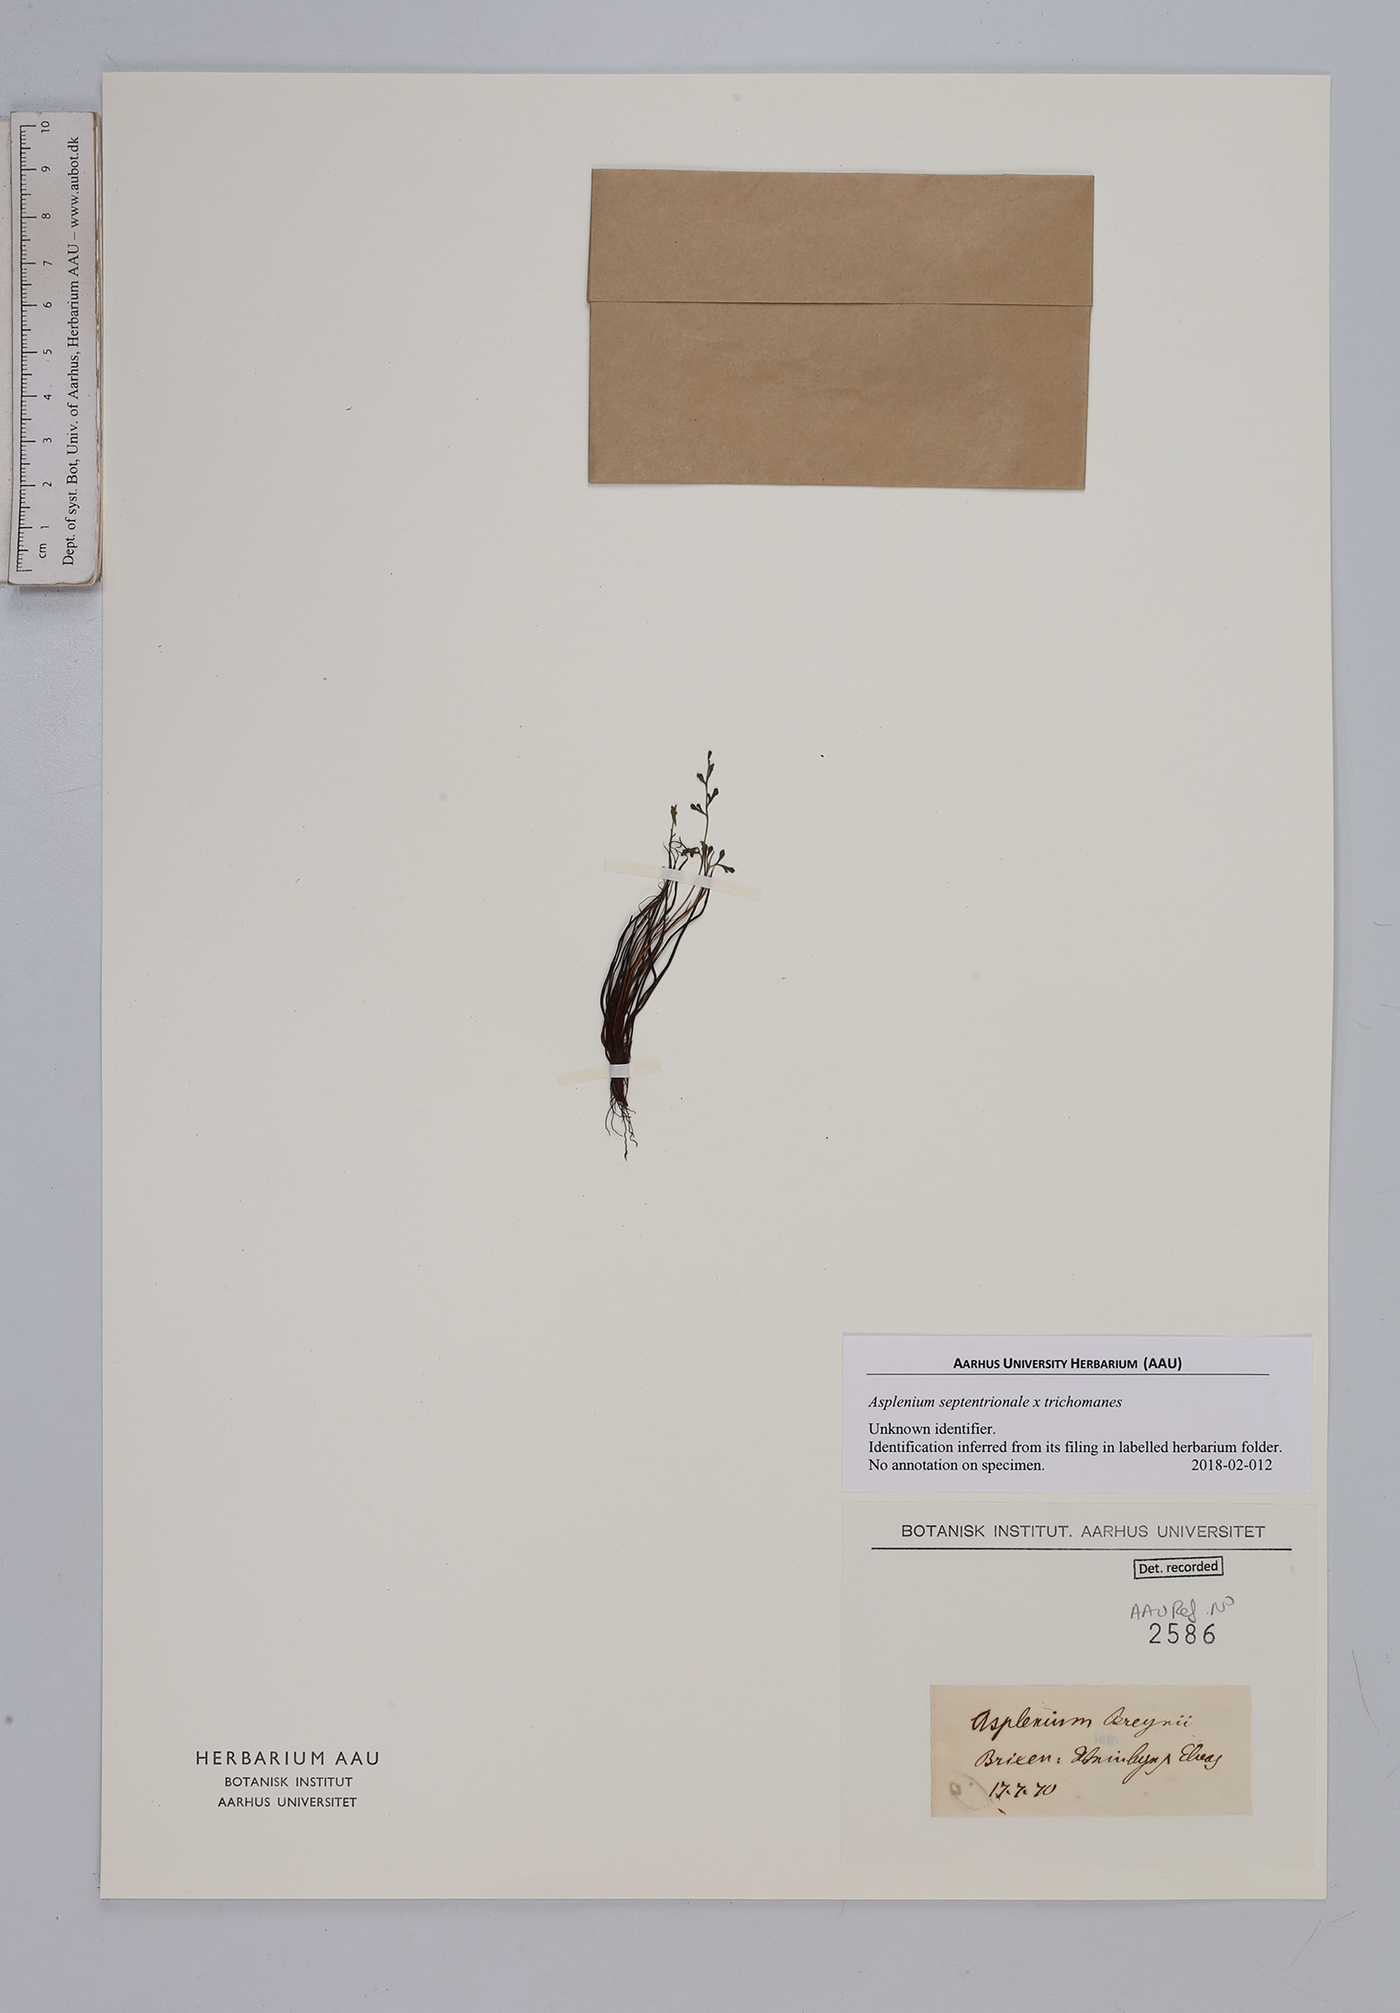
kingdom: Plantae
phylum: Tracheophyta
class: Polypodiopsida
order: Polypodiales
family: Aspleniaceae
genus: Asplenium
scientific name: Asplenium
